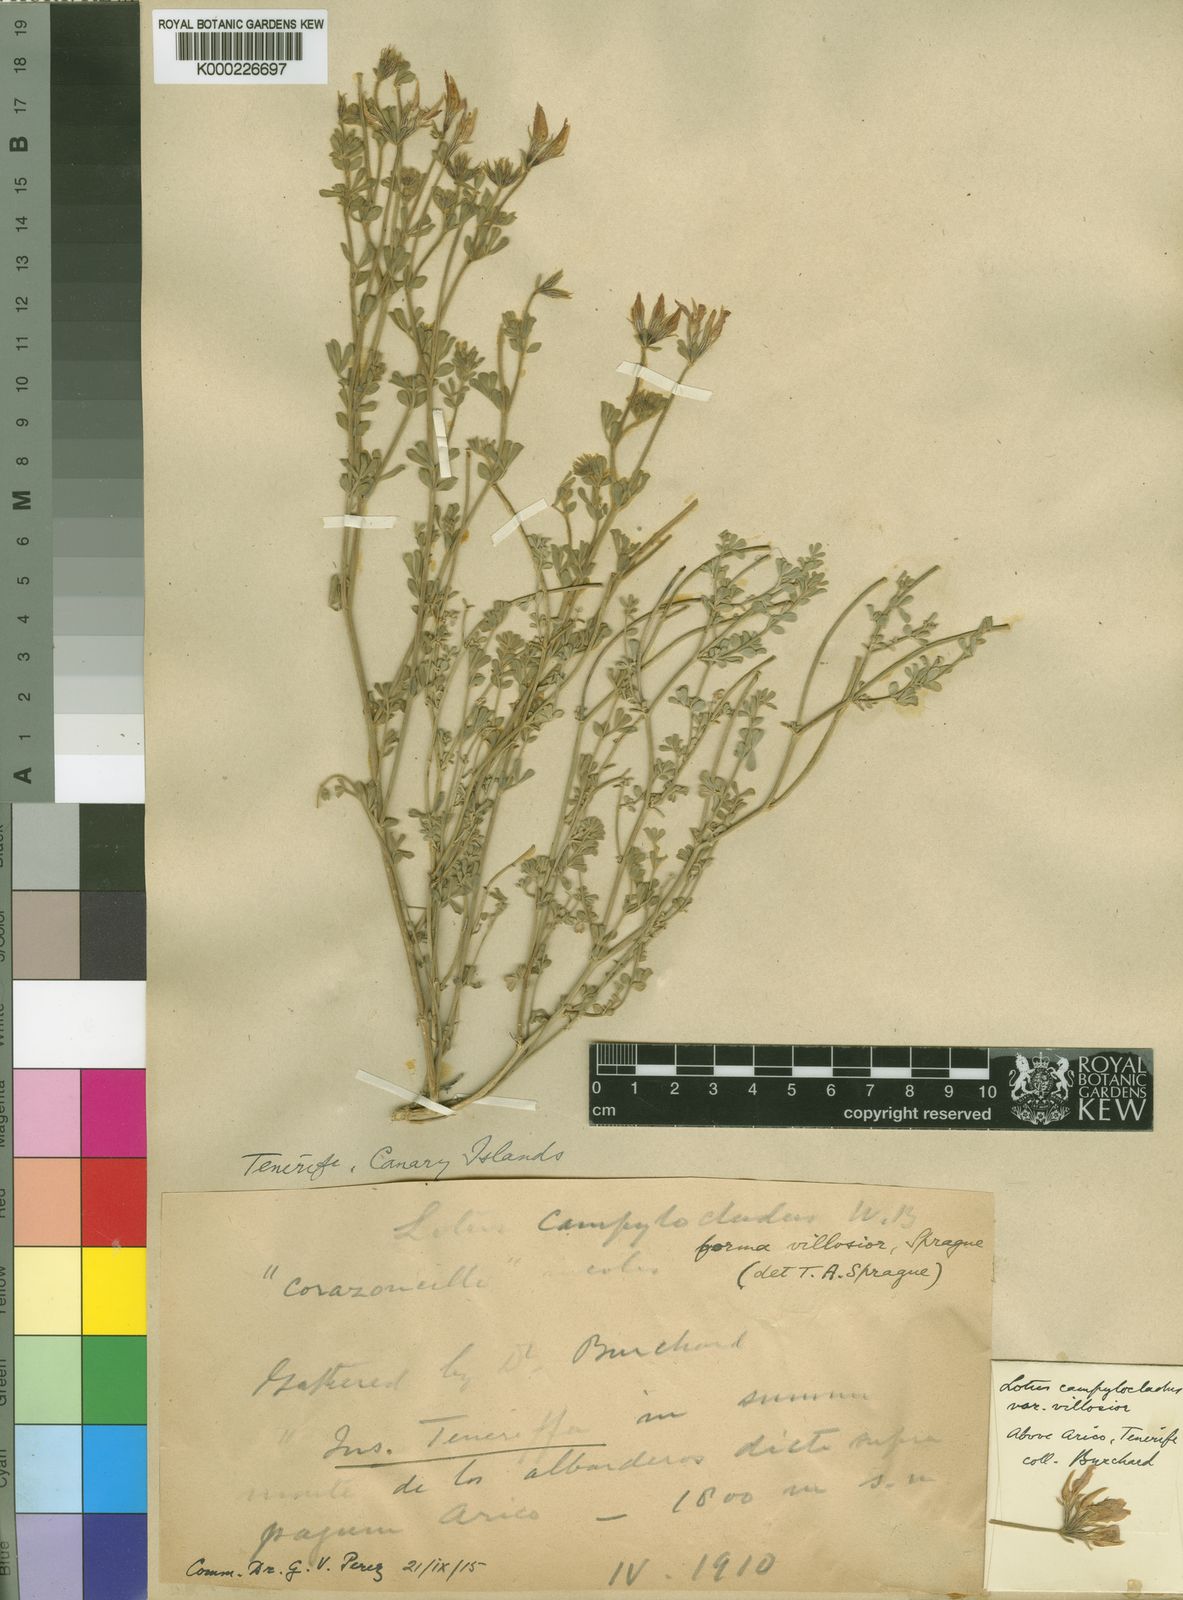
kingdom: Plantae
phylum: Tracheophyta
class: Magnoliopsida
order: Fabales
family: Fabaceae
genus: Lotus
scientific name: Lotus campylocladus
